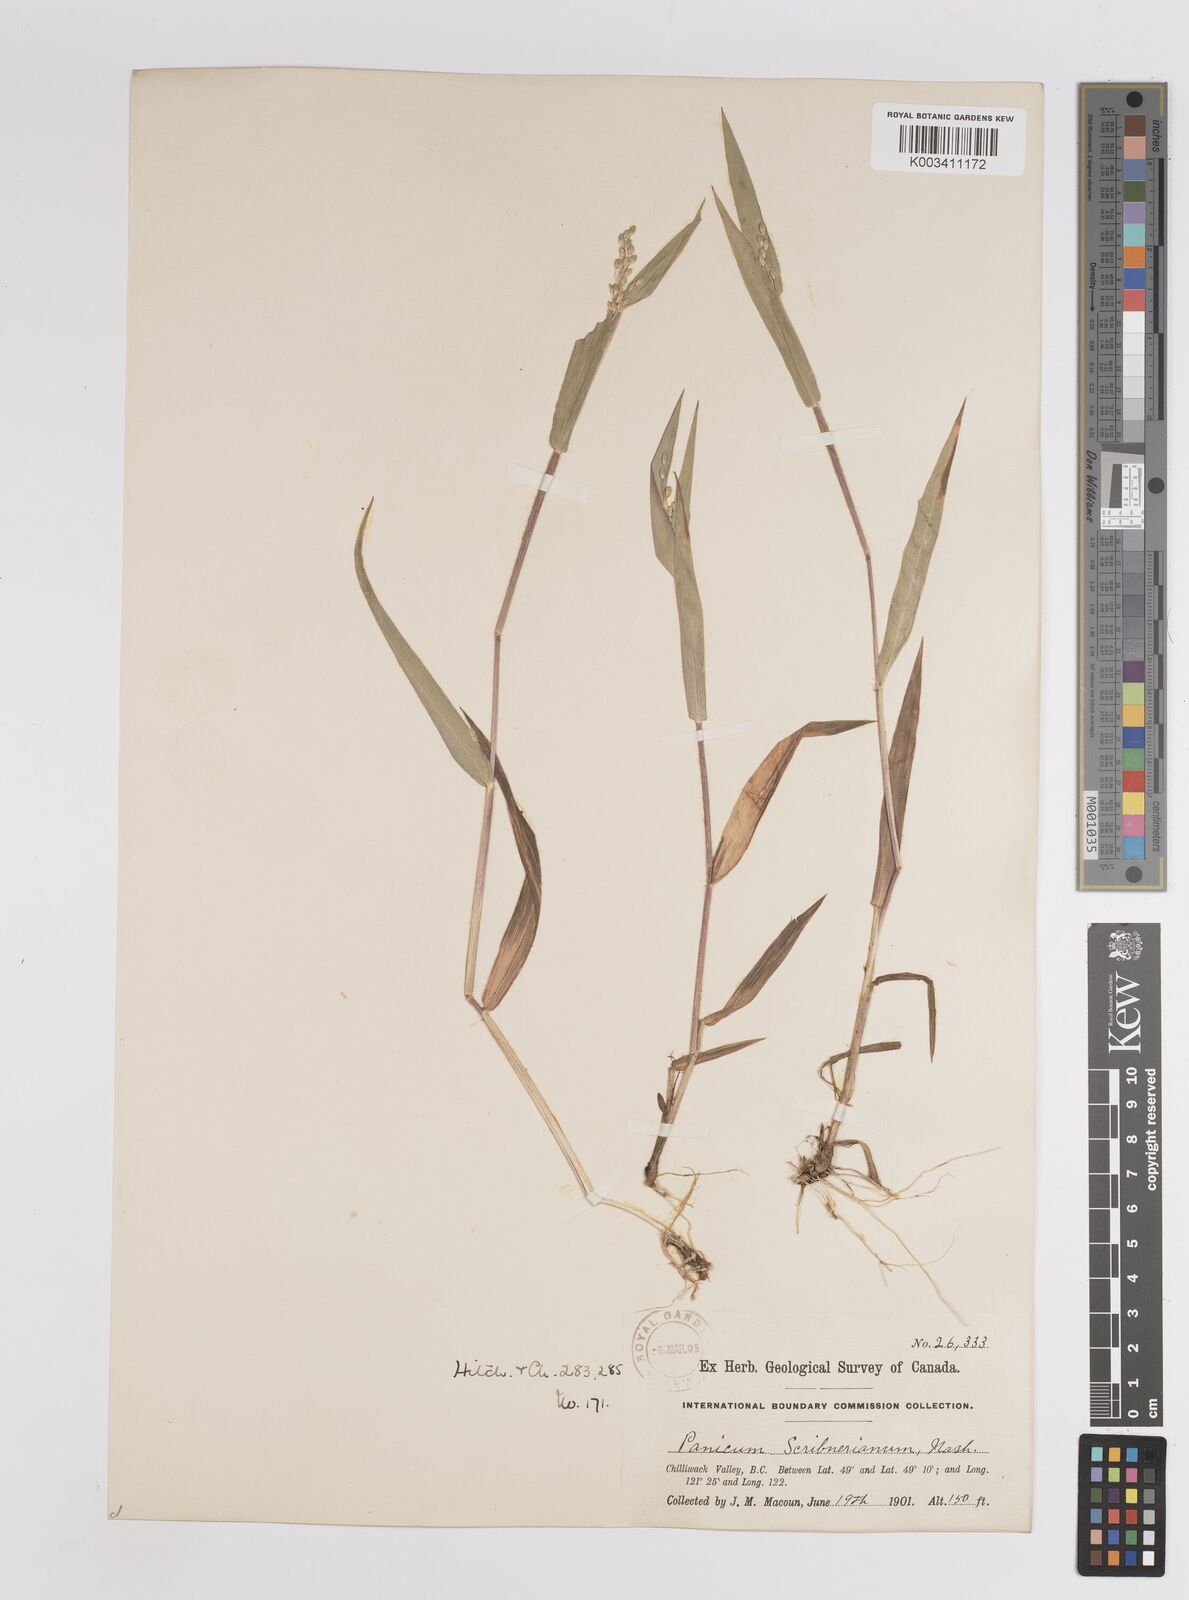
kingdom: Plantae
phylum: Tracheophyta
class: Liliopsida
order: Poales
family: Poaceae
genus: Dichanthelium
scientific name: Dichanthelium scribnerianum
